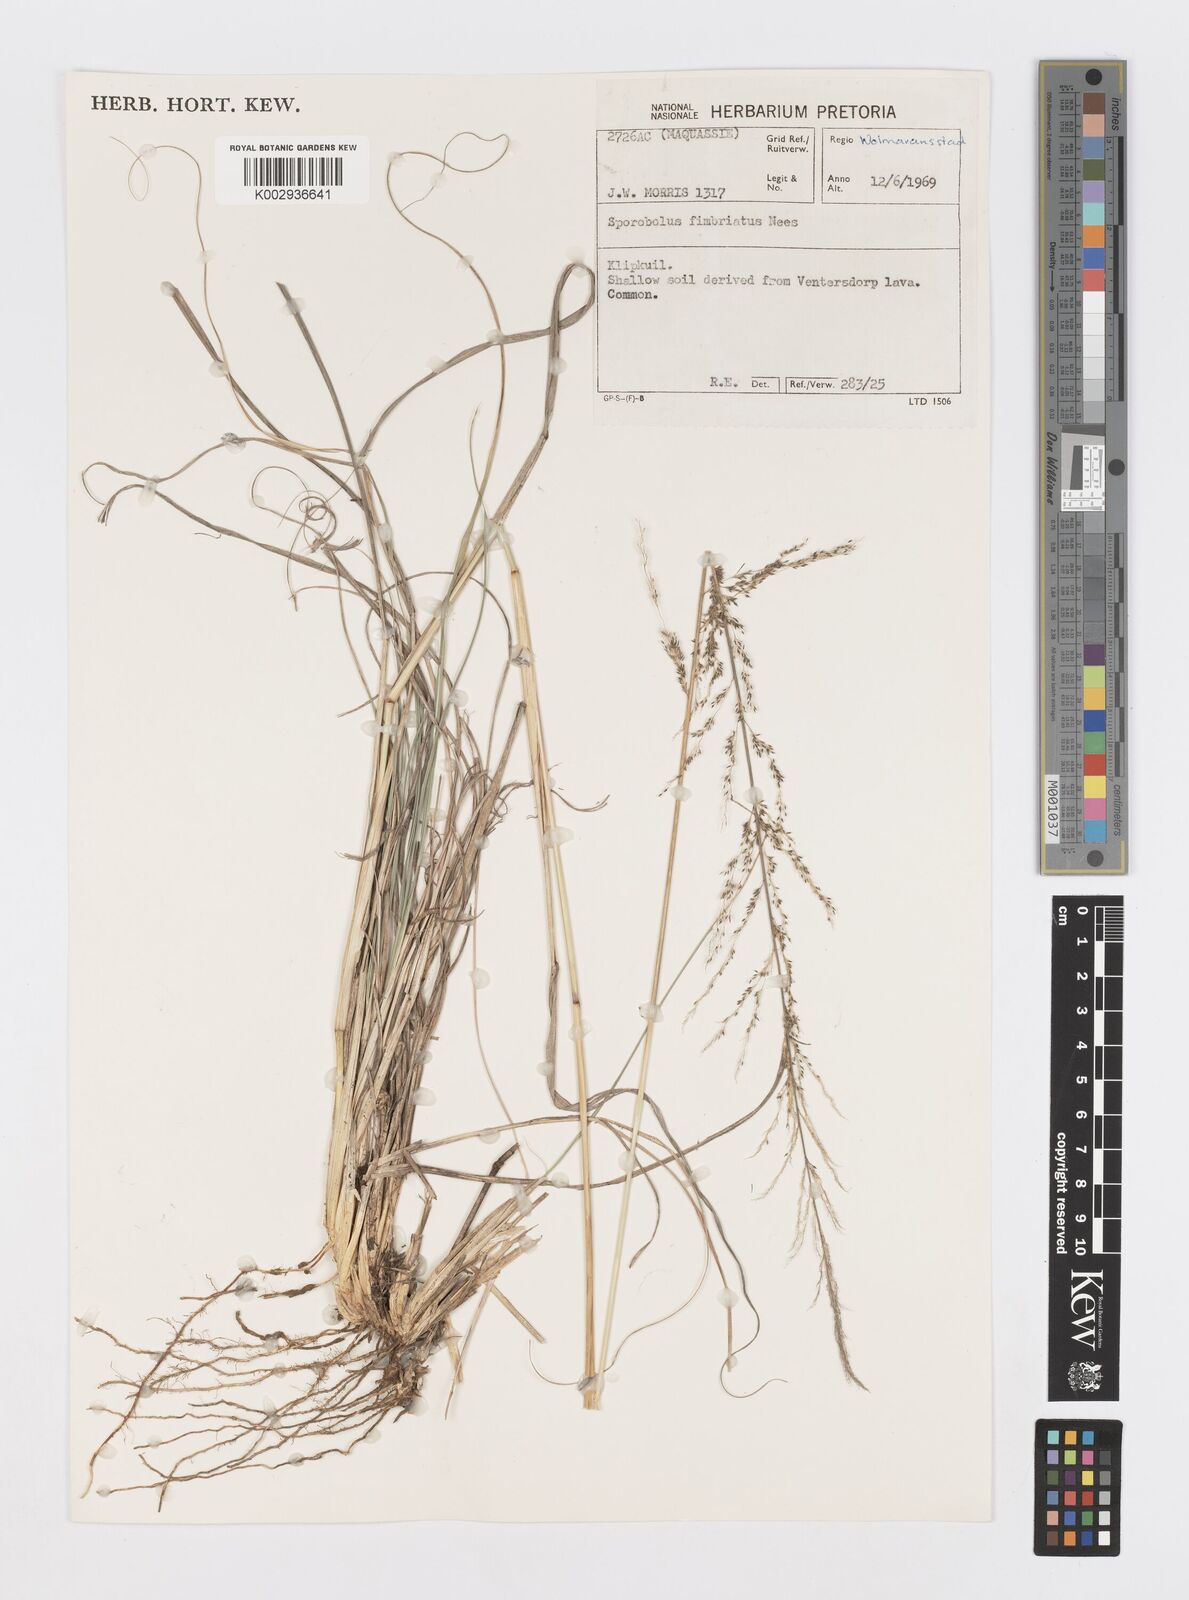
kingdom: Plantae
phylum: Tracheophyta
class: Liliopsida
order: Poales
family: Poaceae
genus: Sporobolus
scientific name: Sporobolus fimbriatus
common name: Fringed dropseed
